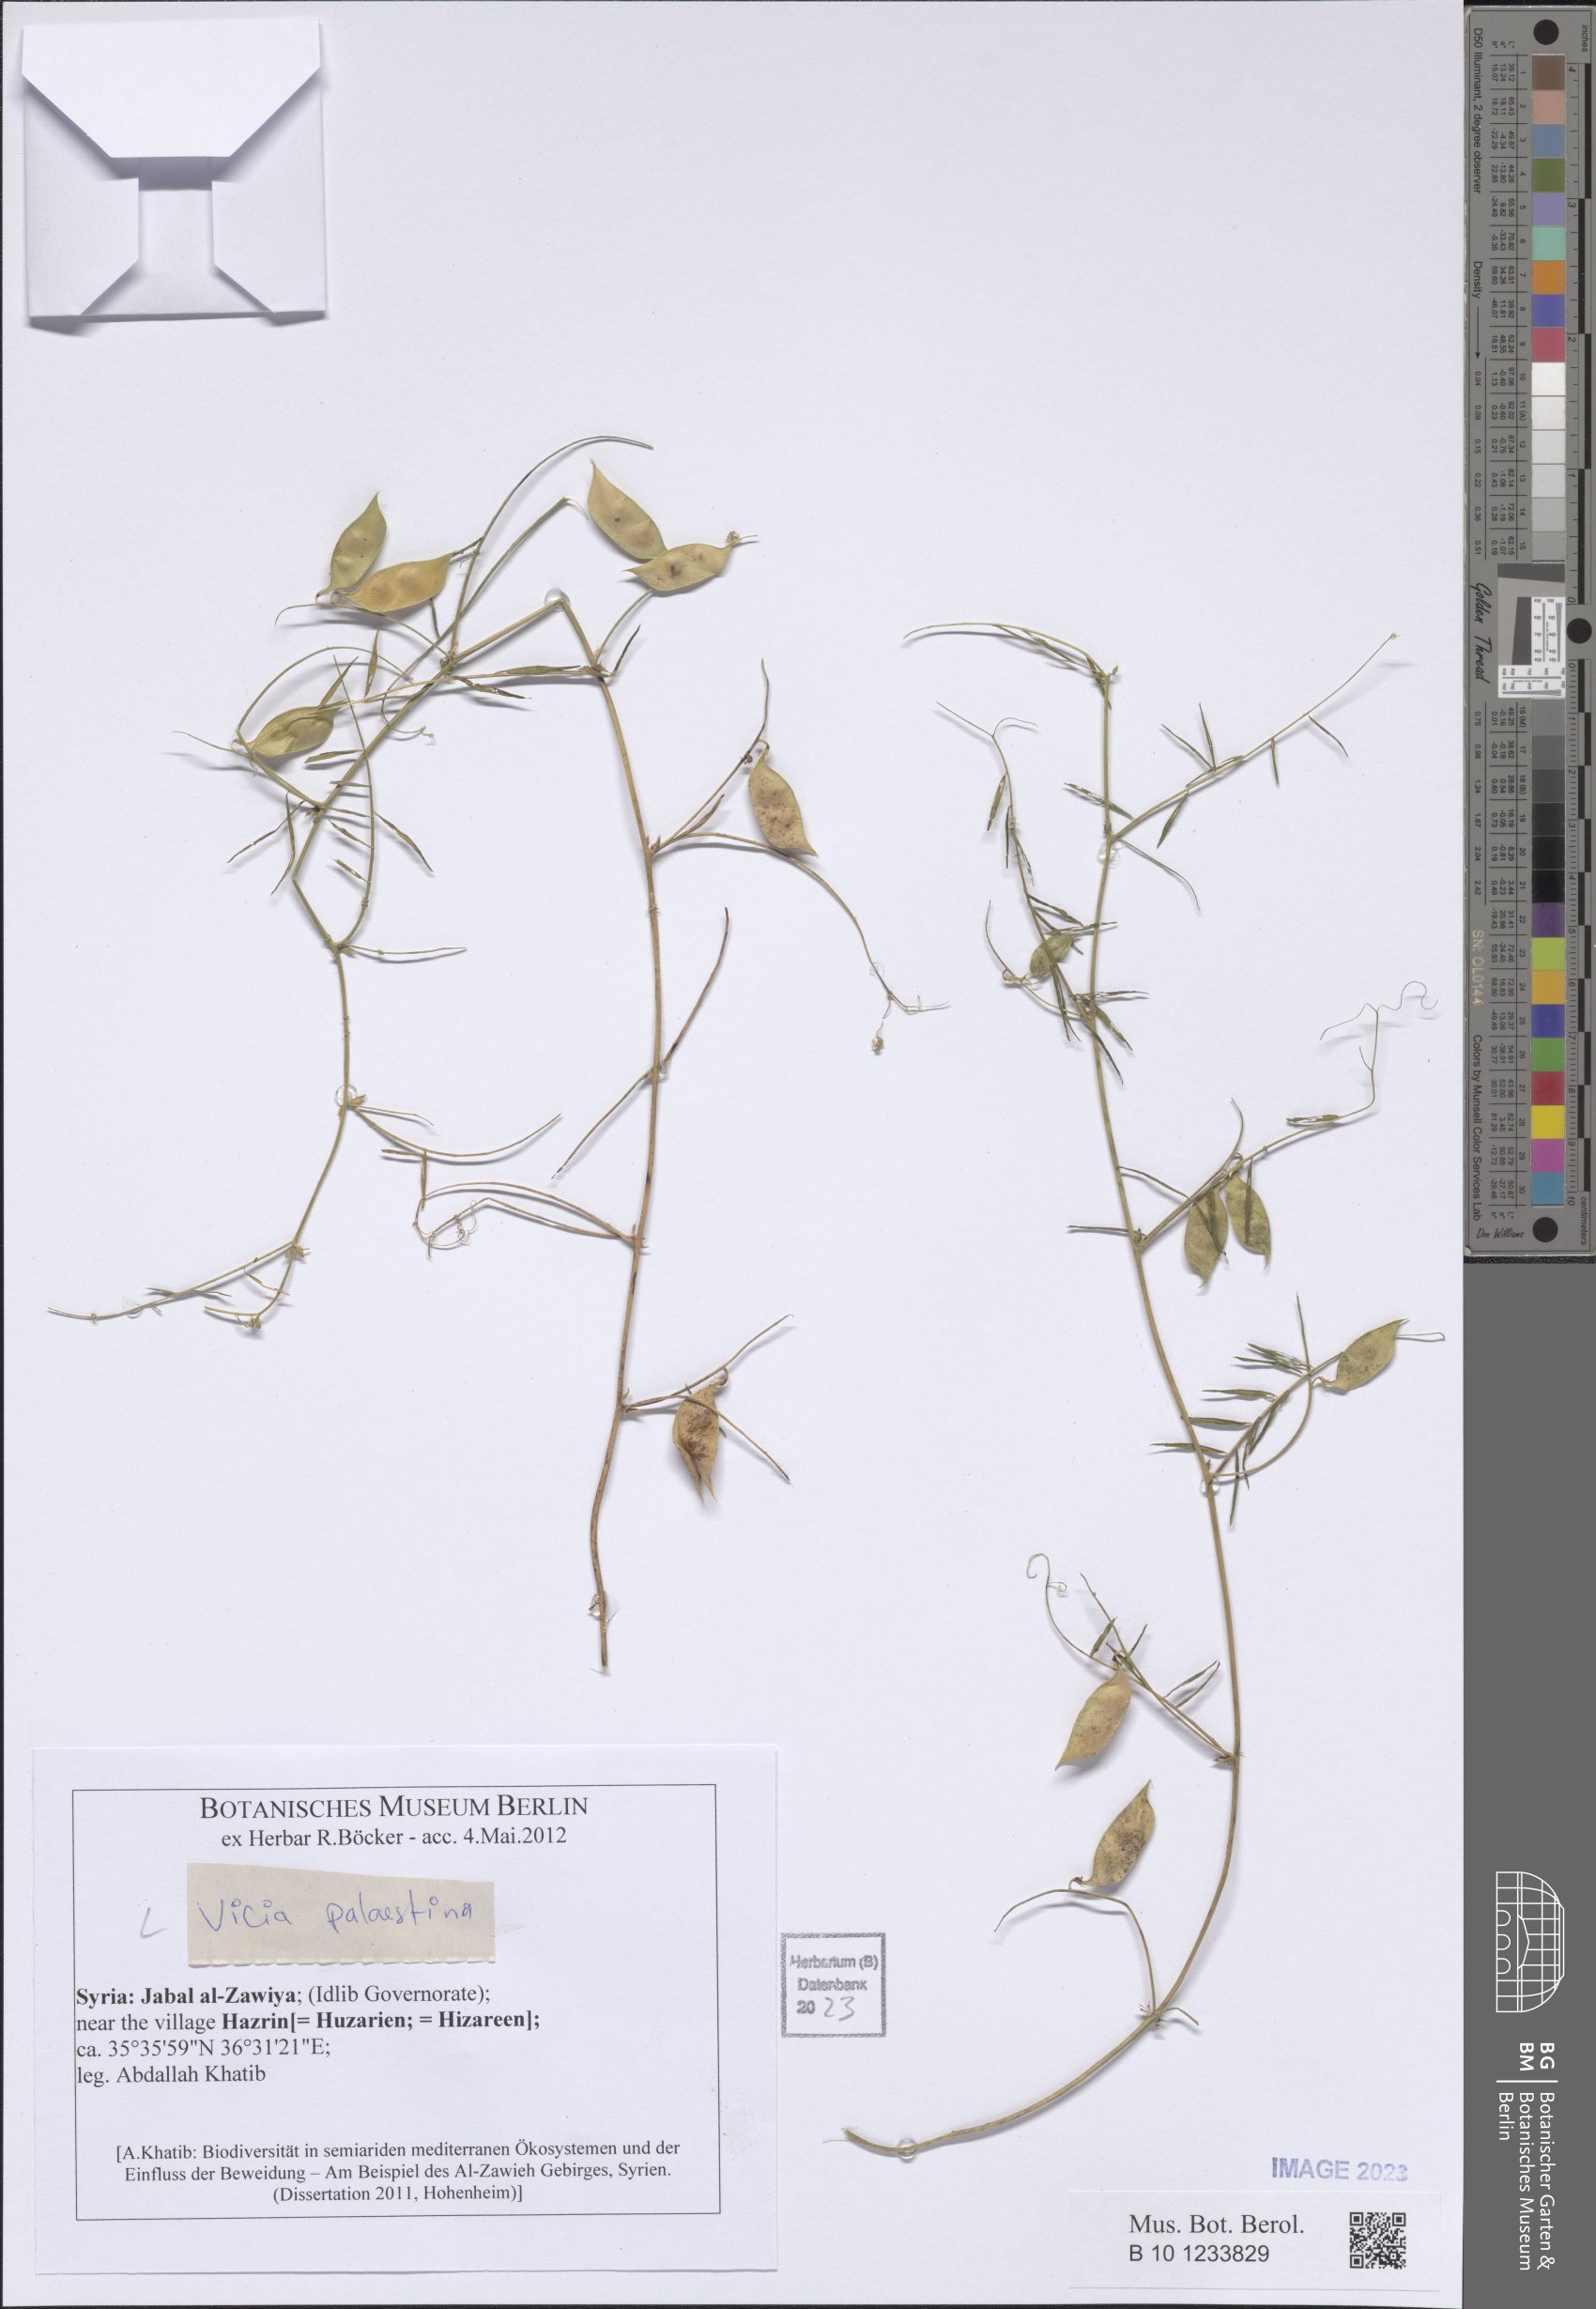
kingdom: Plantae
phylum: Tracheophyta
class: Magnoliopsida
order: Fabales
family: Fabaceae
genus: Vicia
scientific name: Vicia palaestina
